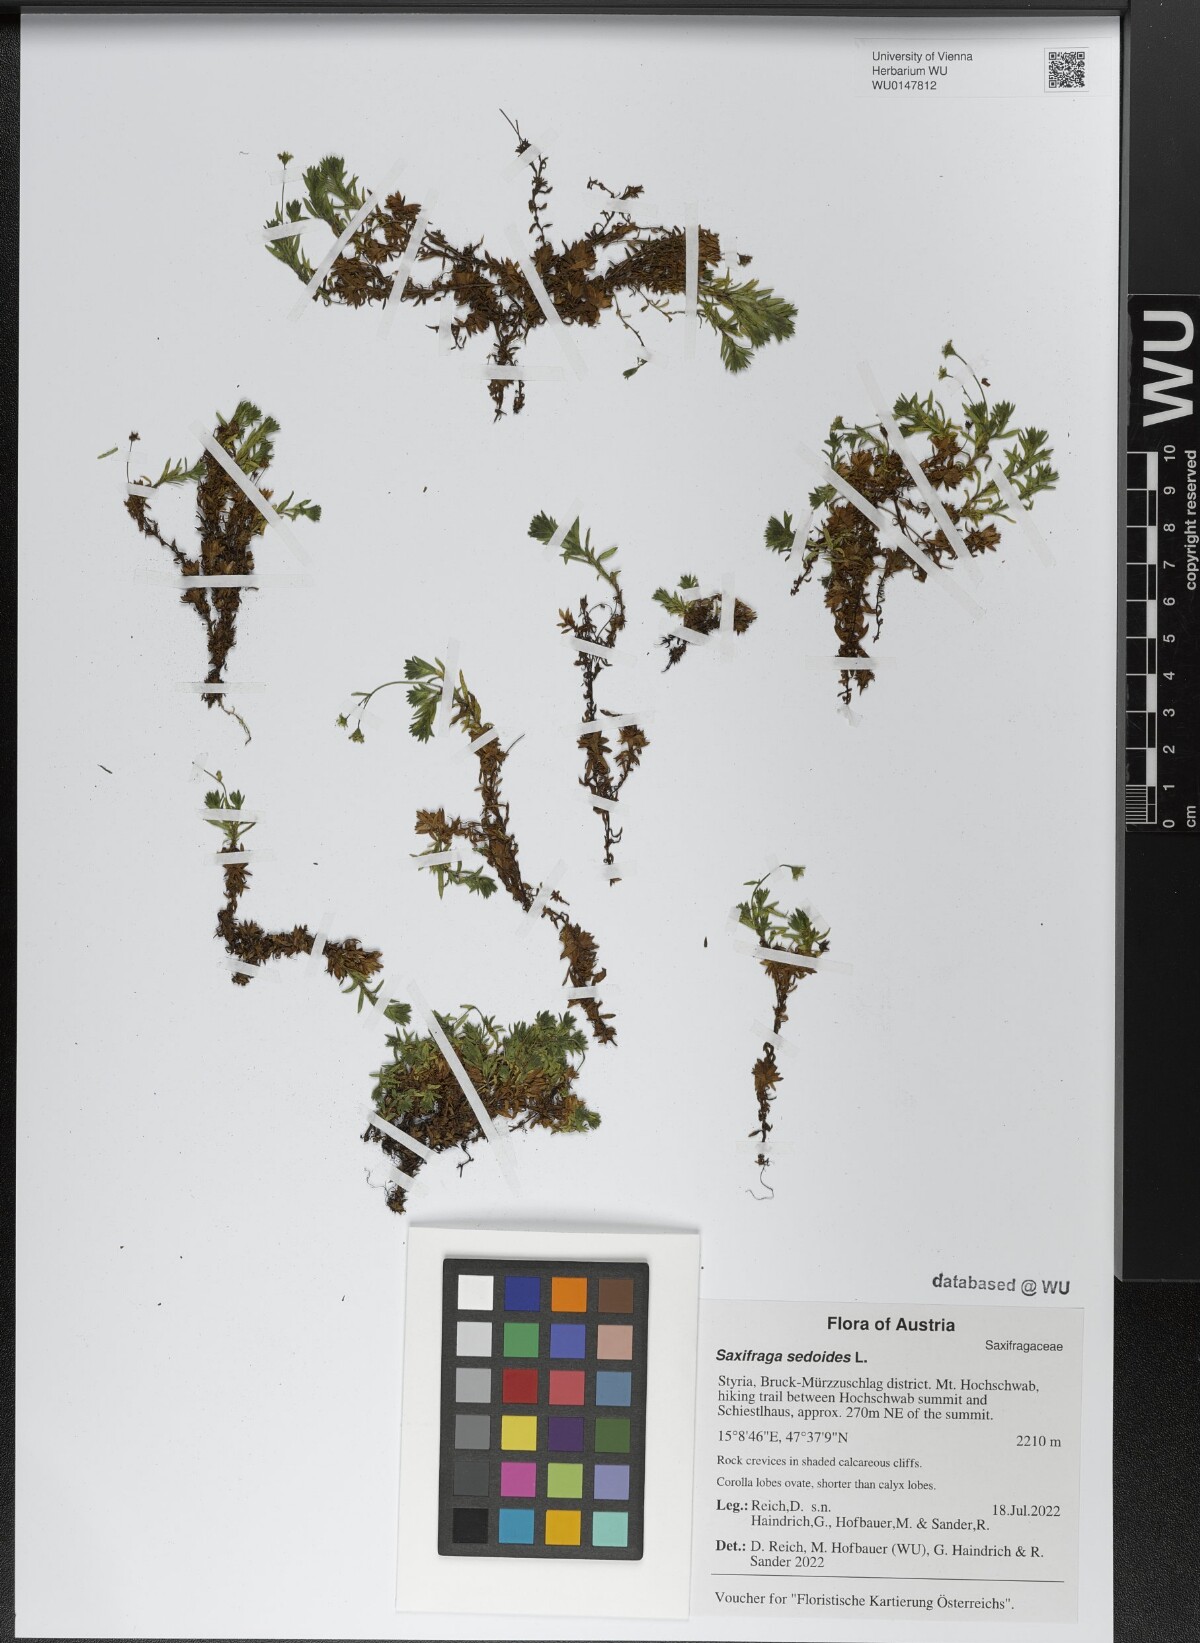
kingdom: Plantae
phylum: Tracheophyta
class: Magnoliopsida
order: Saxifragales
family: Saxifragaceae
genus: Saxifraga
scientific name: Saxifraga sedoides
